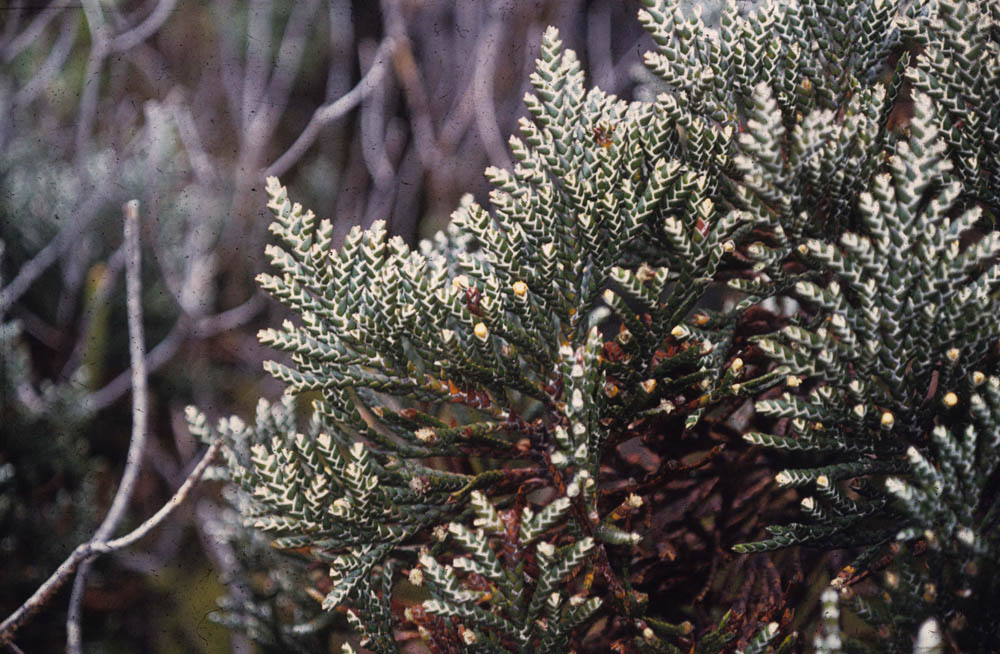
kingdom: Plantae
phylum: Tracheophyta
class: Magnoliopsida
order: Asterales
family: Asteraceae
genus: Andicolea
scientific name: Andicolea thuyoides
